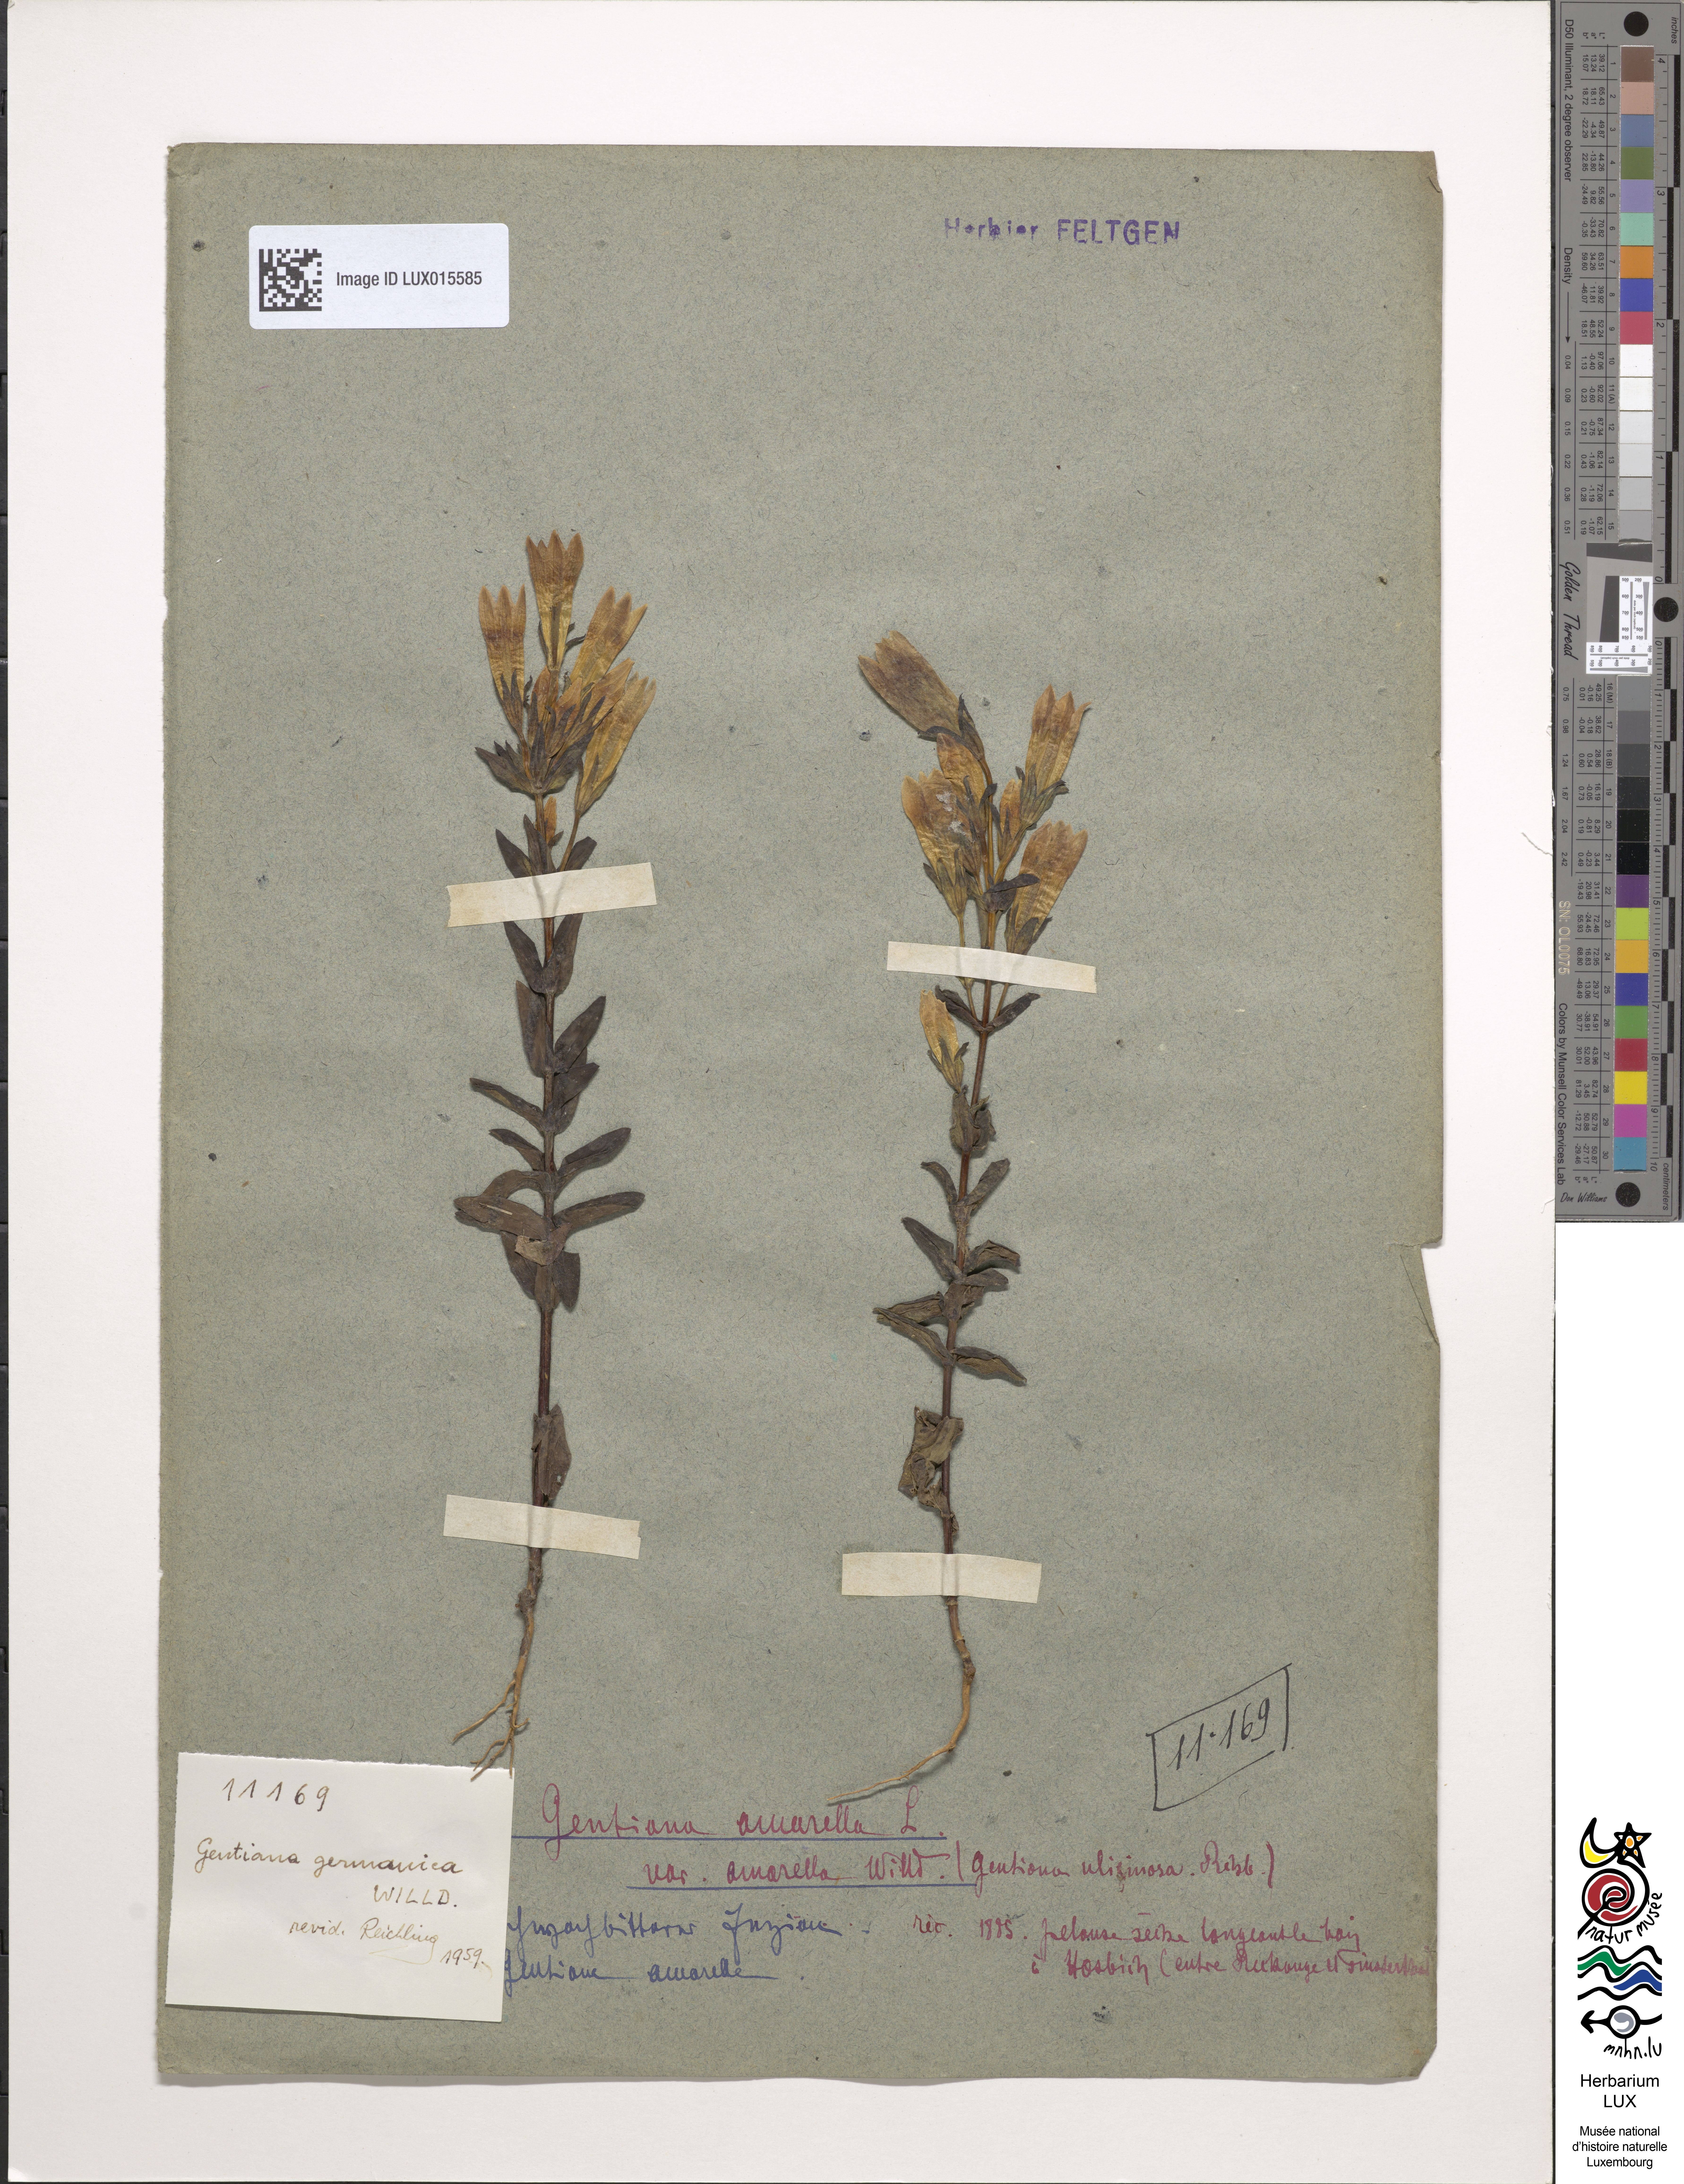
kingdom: Plantae
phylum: Tracheophyta
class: Magnoliopsida
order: Gentianales
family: Gentianaceae
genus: Gentianella
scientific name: Gentianella
